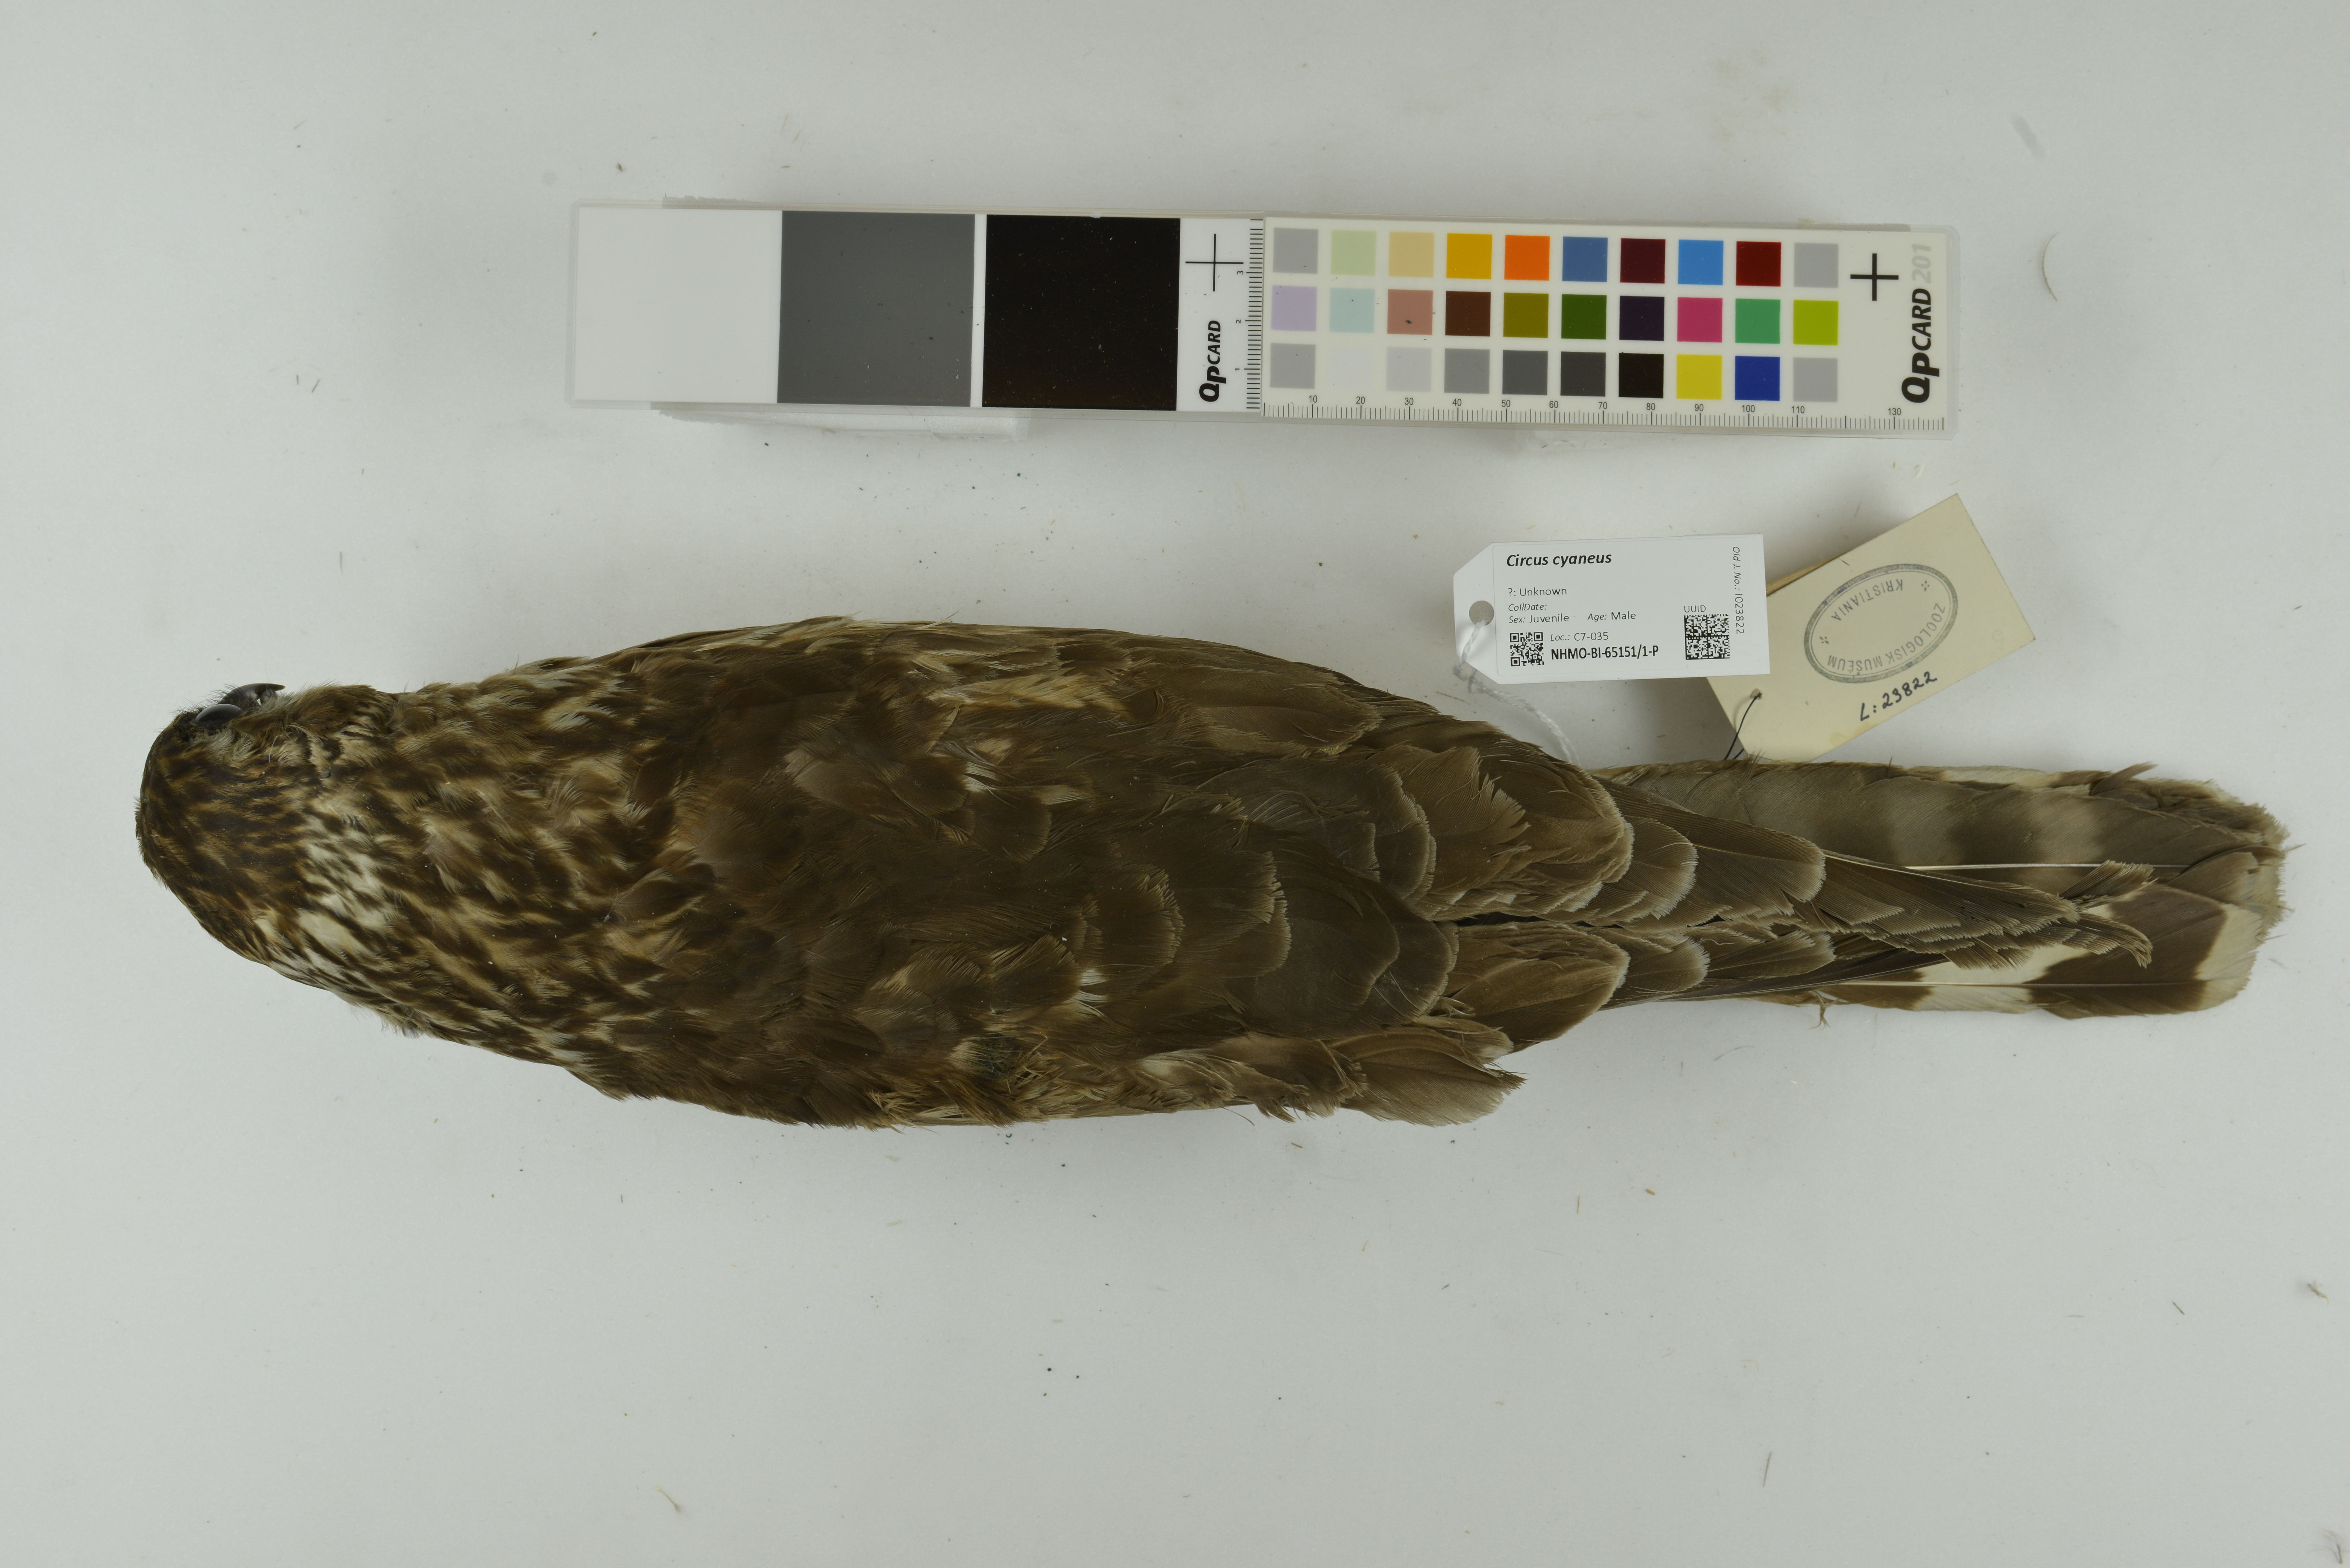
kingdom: Animalia
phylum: Chordata
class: Aves
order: Accipitriformes
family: Accipitridae
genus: Circus
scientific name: Circus cyaneus
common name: Hen harrier
